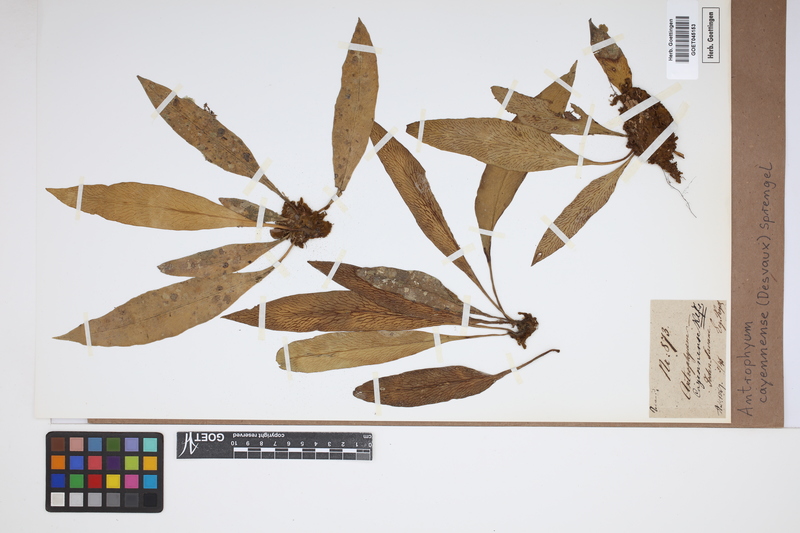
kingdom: Plantae
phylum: Tracheophyta
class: Polypodiopsida
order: Polypodiales
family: Pteridaceae
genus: Polytaenium
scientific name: Polytaenium cajenense
